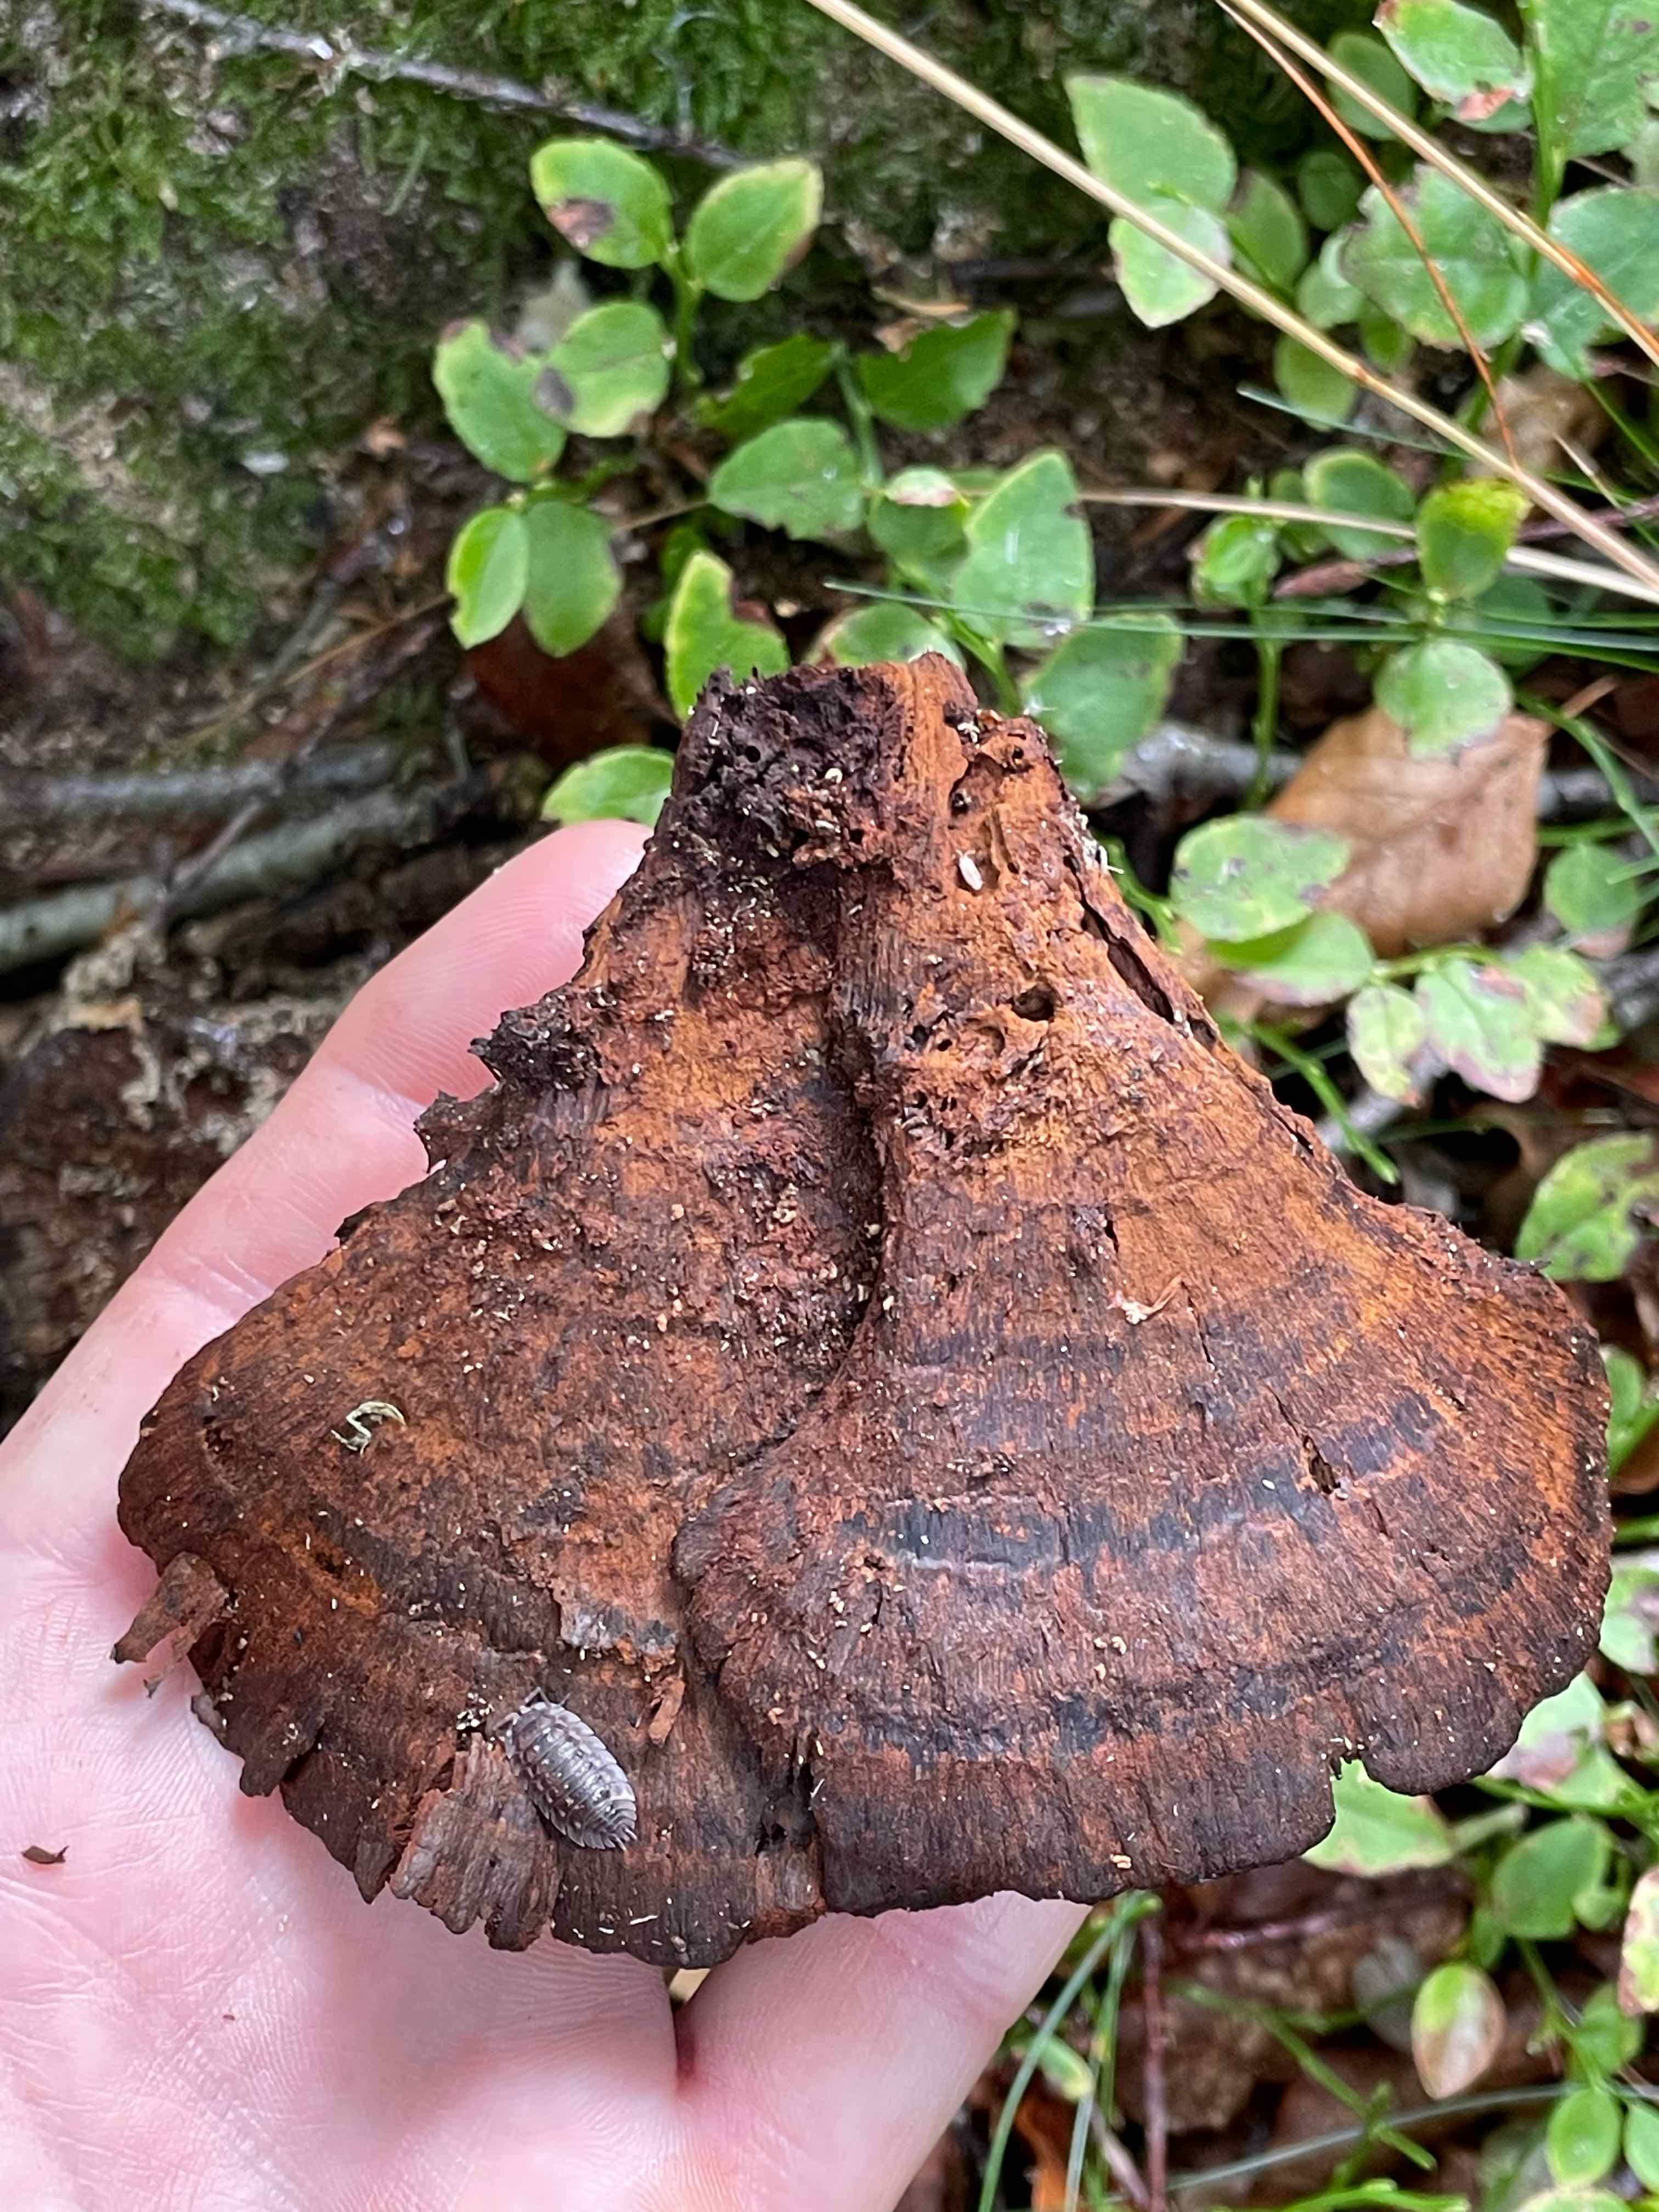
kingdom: Fungi
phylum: Basidiomycota
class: Agaricomycetes
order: Polyporales
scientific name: Polyporales
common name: poresvampordenen
